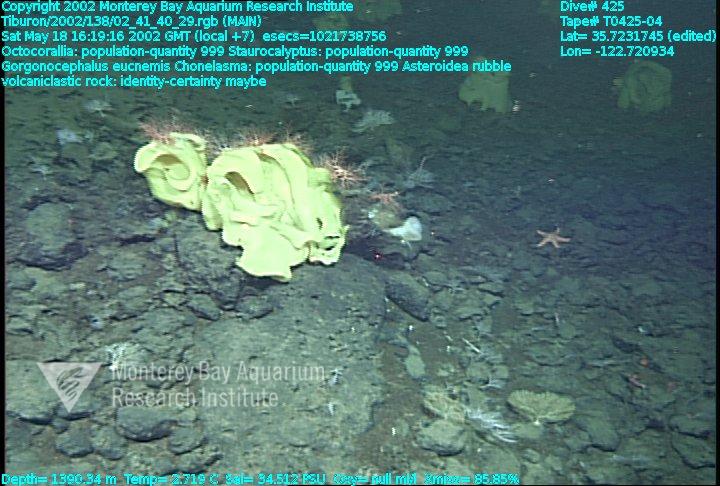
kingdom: Animalia
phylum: Porifera
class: Hexactinellida
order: Sceptrulophora
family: Euretidae
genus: Chonelasma
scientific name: Chonelasma
